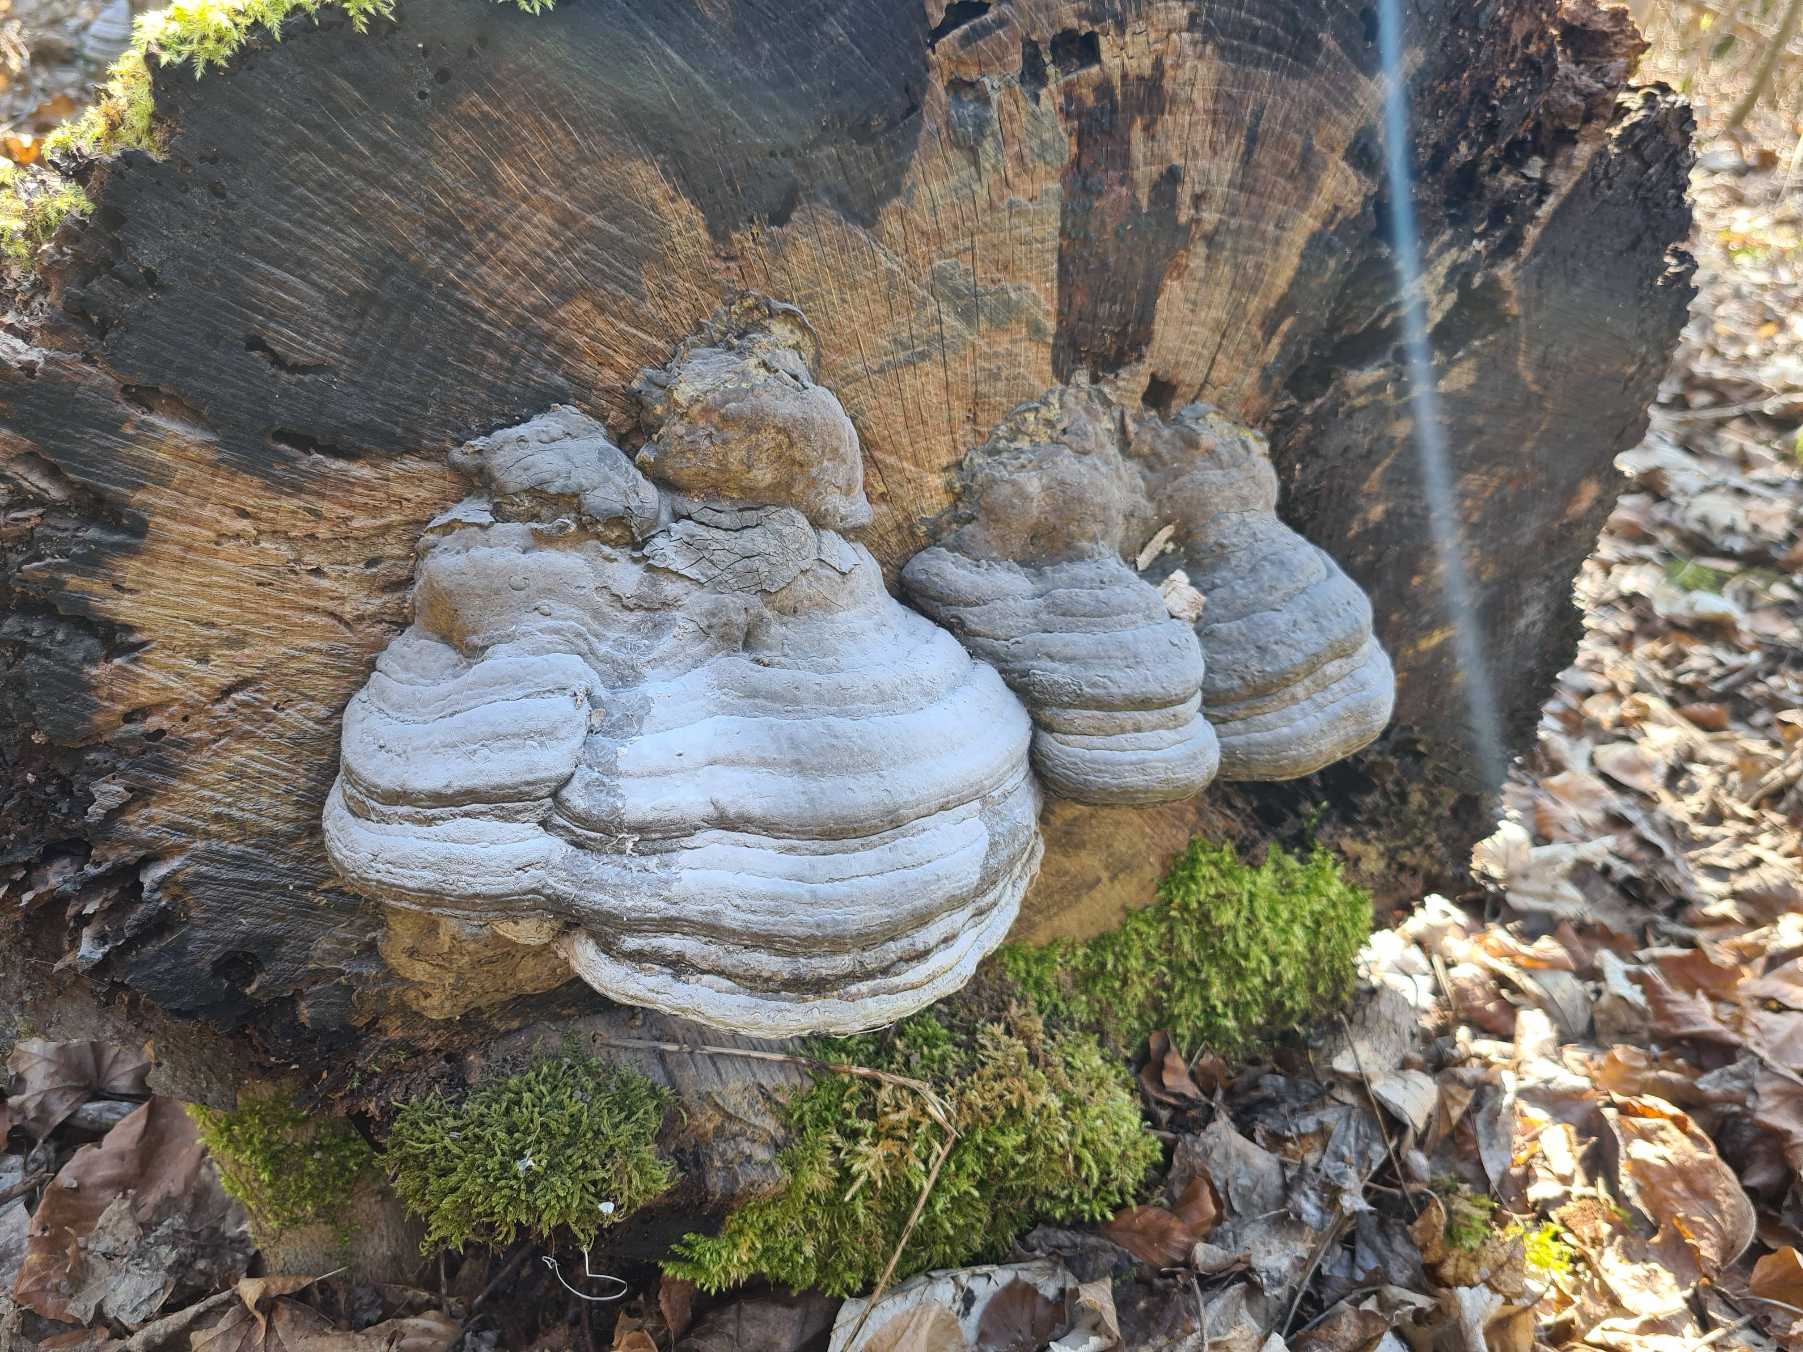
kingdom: Fungi
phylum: Basidiomycota
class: Agaricomycetes
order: Polyporales
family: Polyporaceae
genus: Fomes
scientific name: Fomes fomentarius
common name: Tøndersvamp
